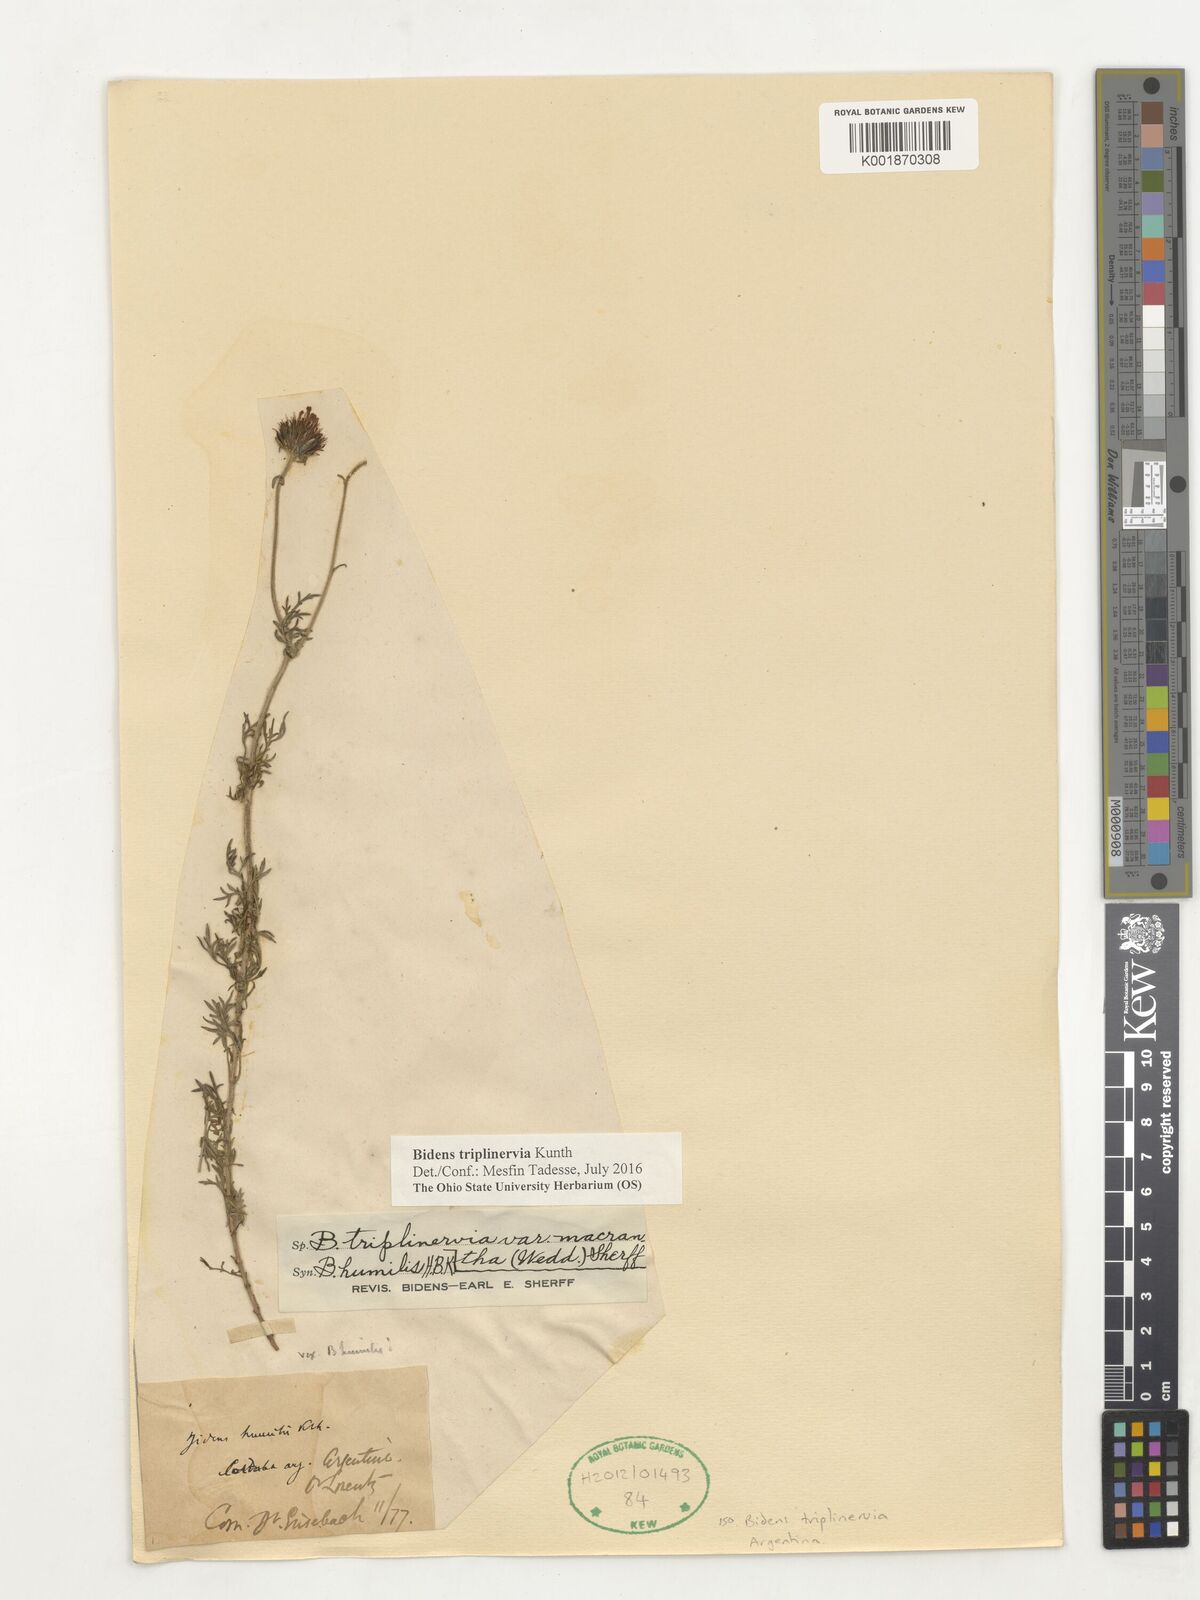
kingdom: Plantae
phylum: Tracheophyta
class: Magnoliopsida
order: Asterales
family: Asteraceae
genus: Bidens
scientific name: Bidens triplinervia
